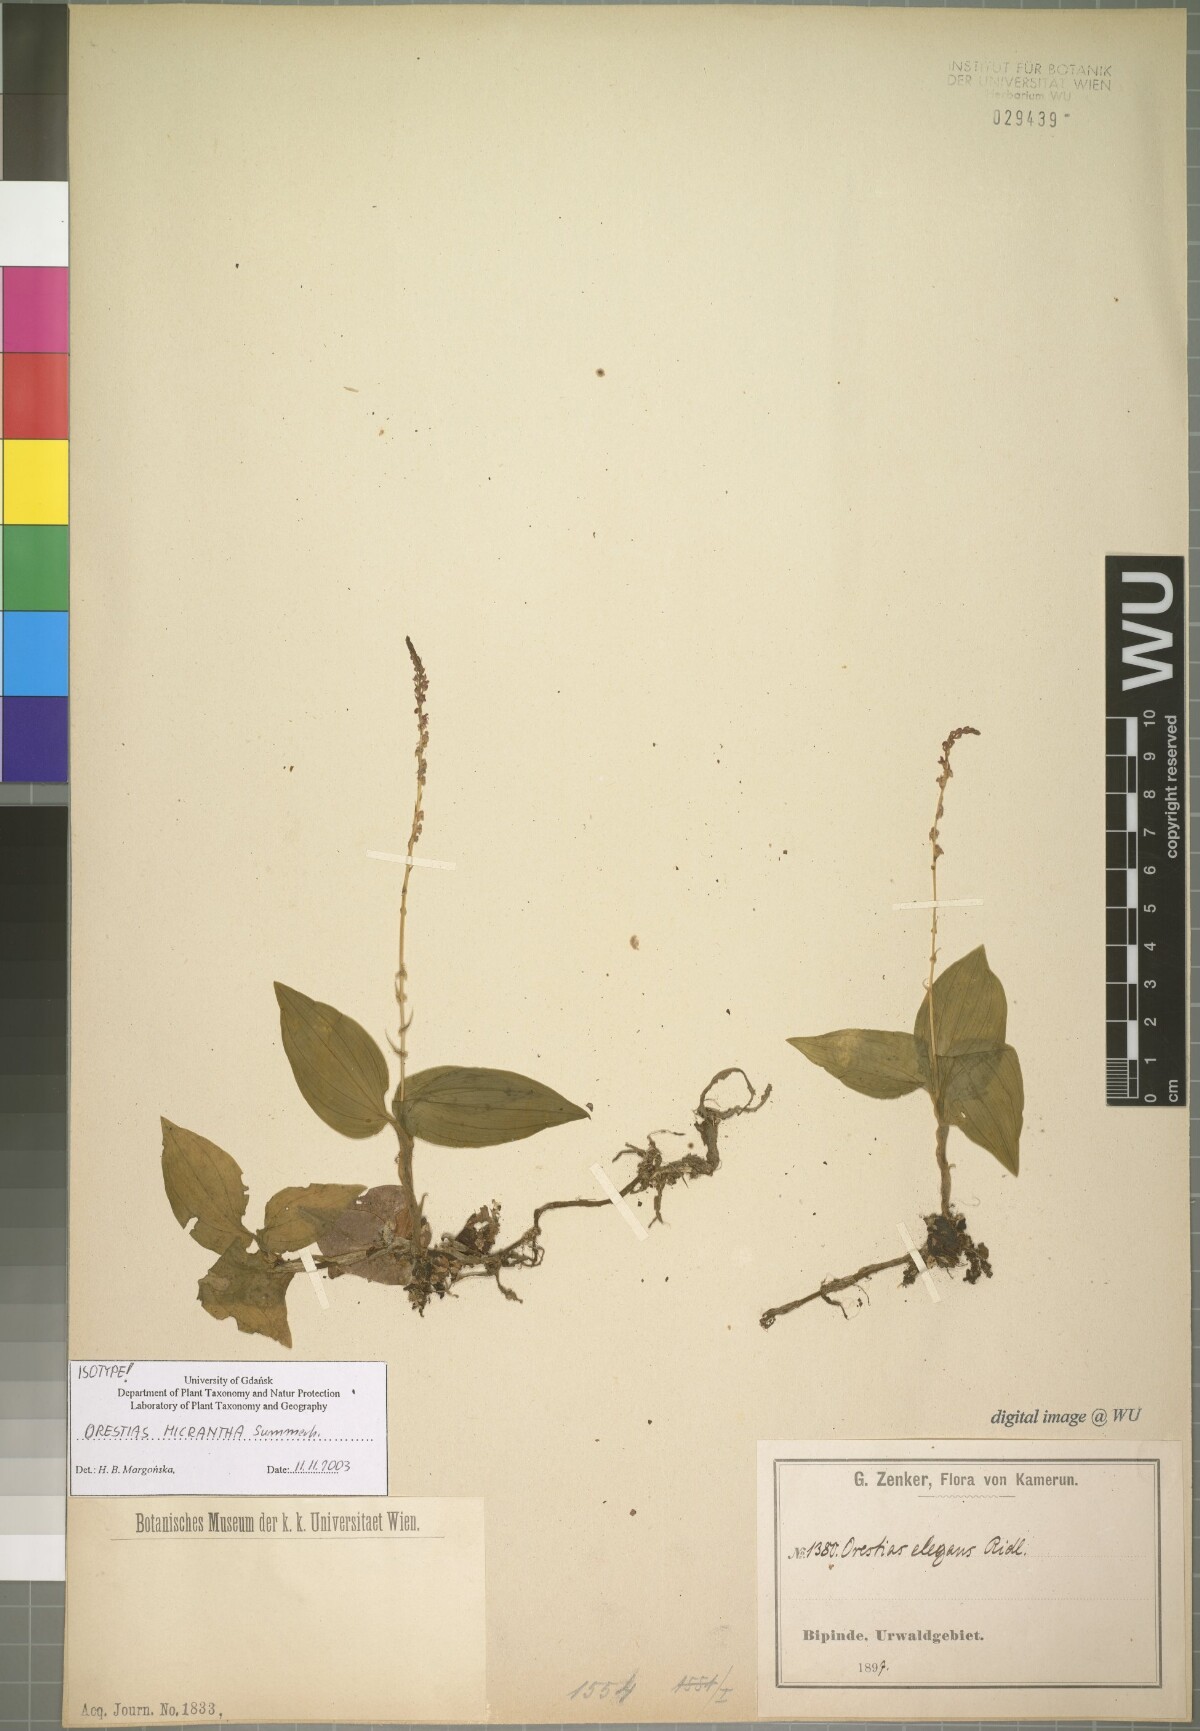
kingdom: Plantae
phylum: Tracheophyta
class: Liliopsida
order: Asparagales
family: Orchidaceae
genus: Orestias
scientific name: Orestias micrantha
